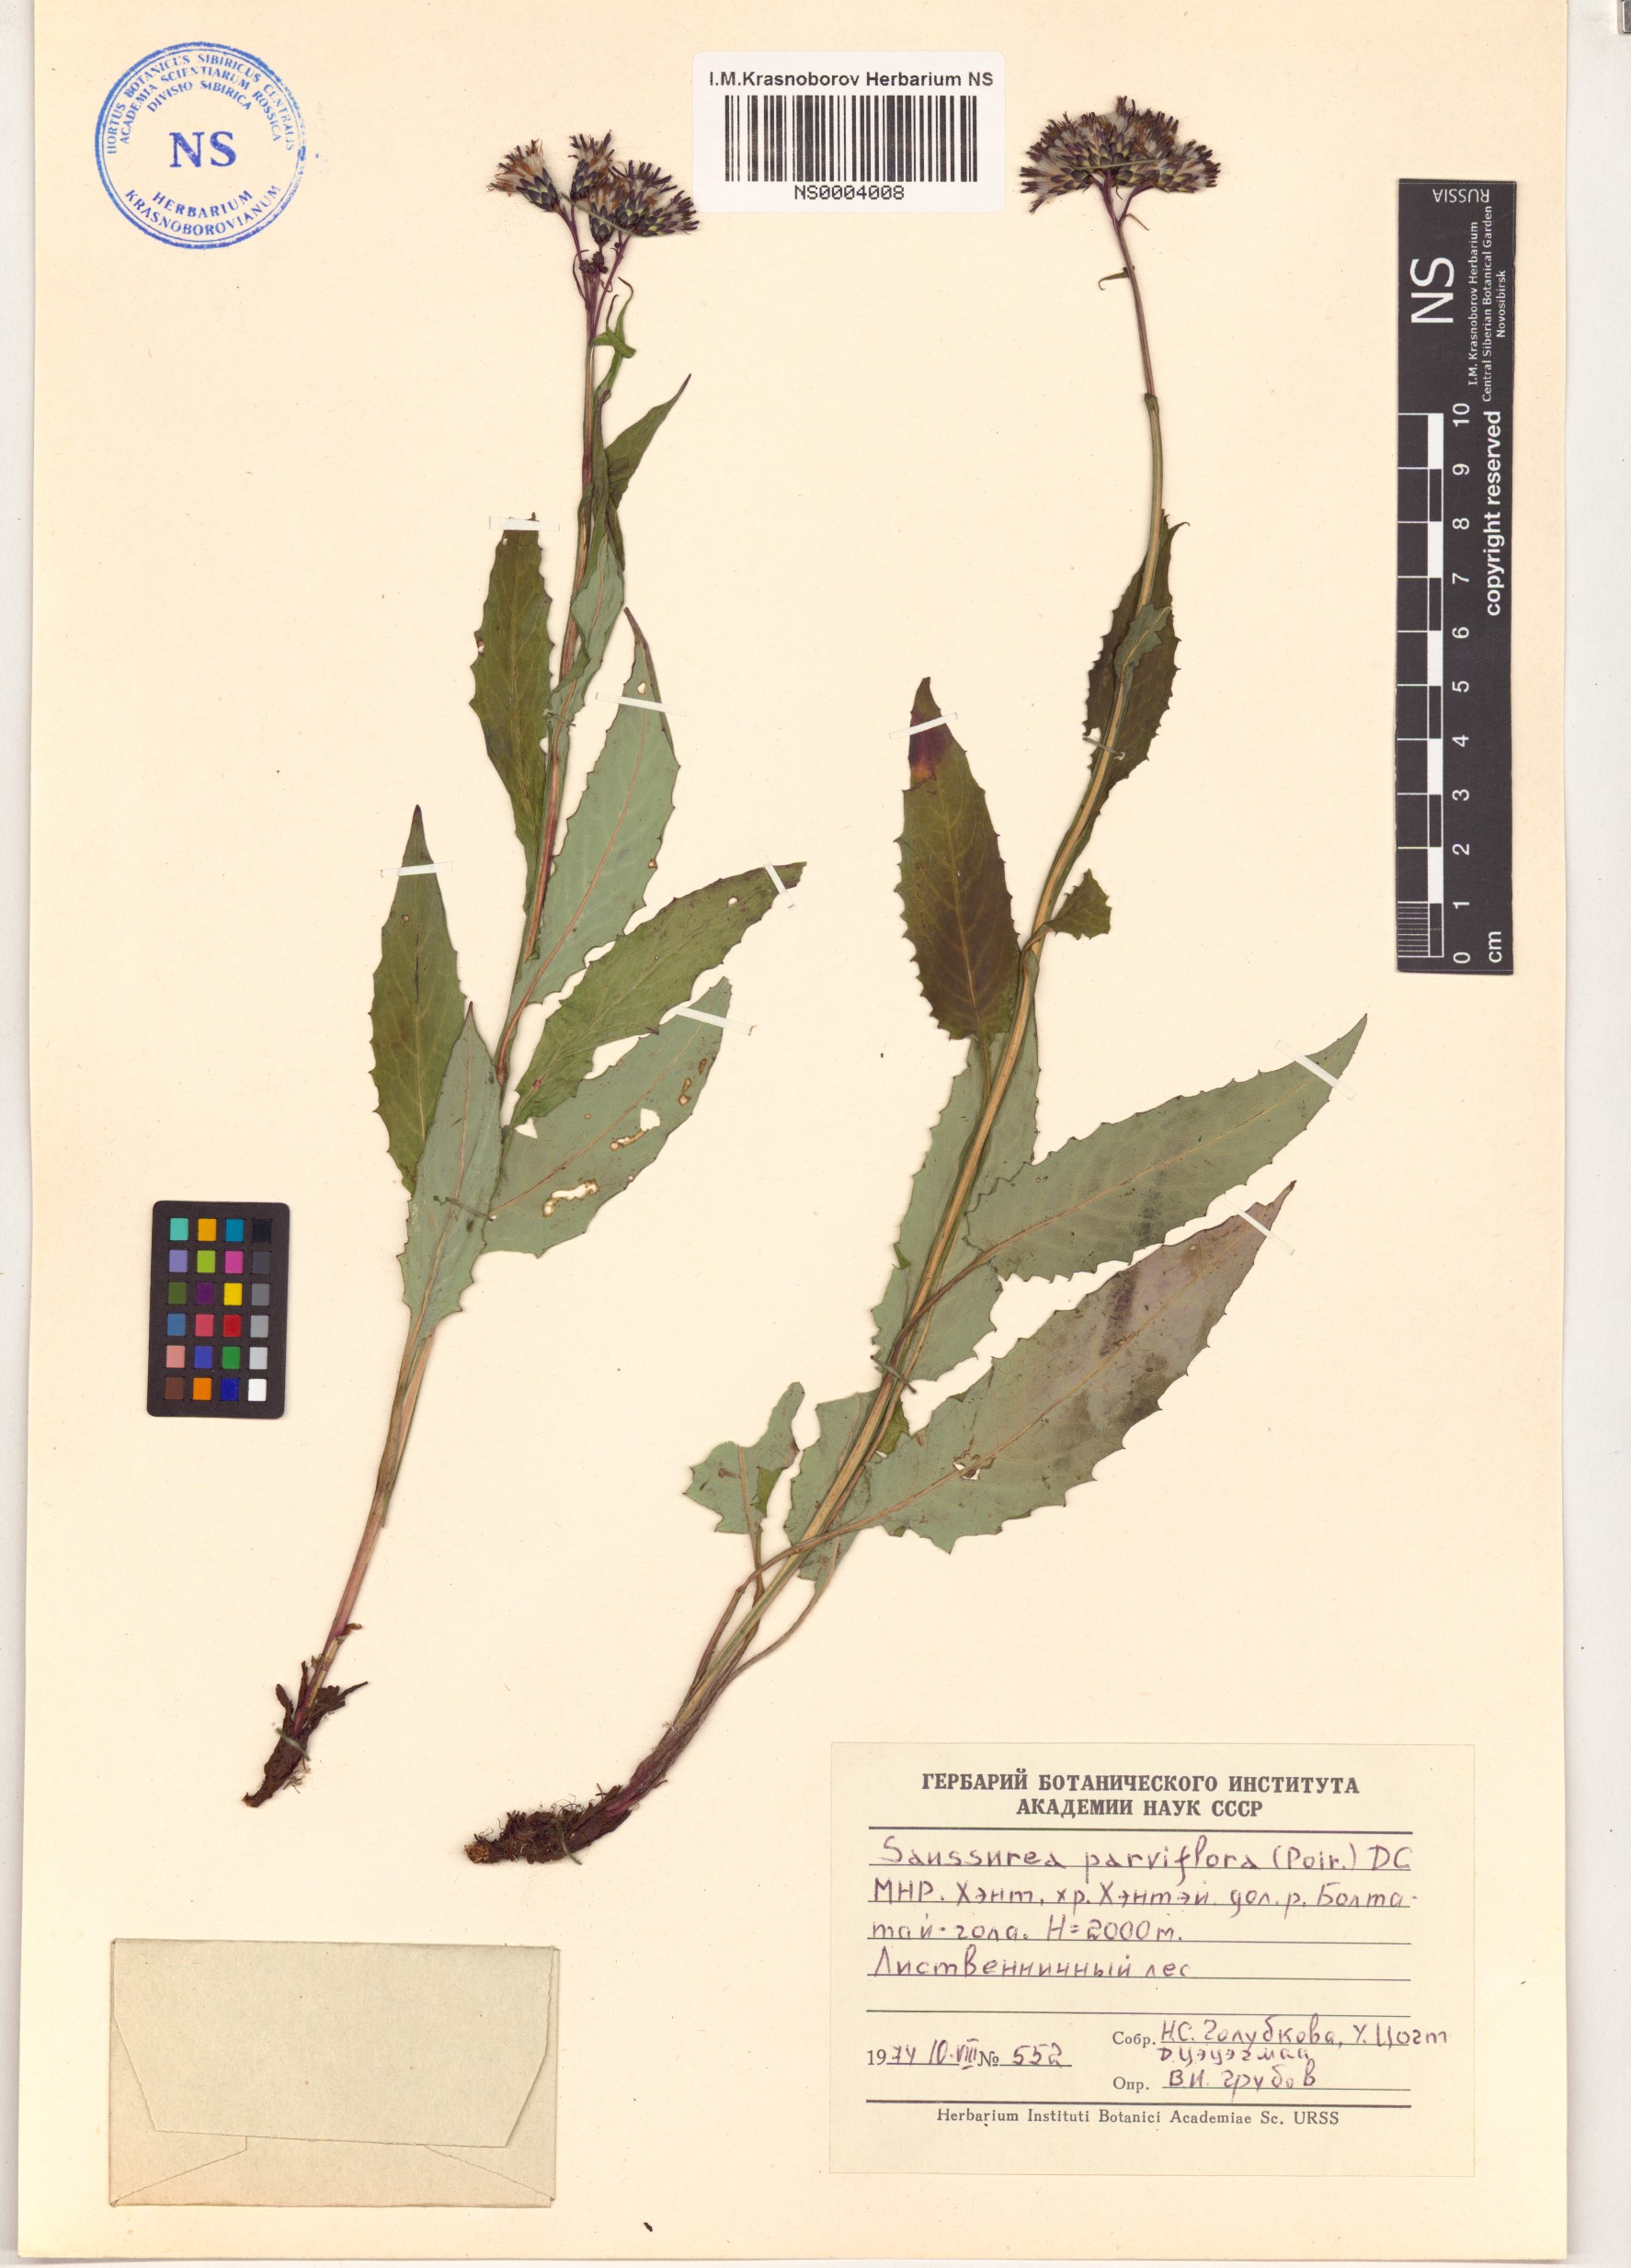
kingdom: Plantae
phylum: Tracheophyta
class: Magnoliopsida
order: Asterales
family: Asteraceae
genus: Saussurea
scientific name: Saussurea parviflora
